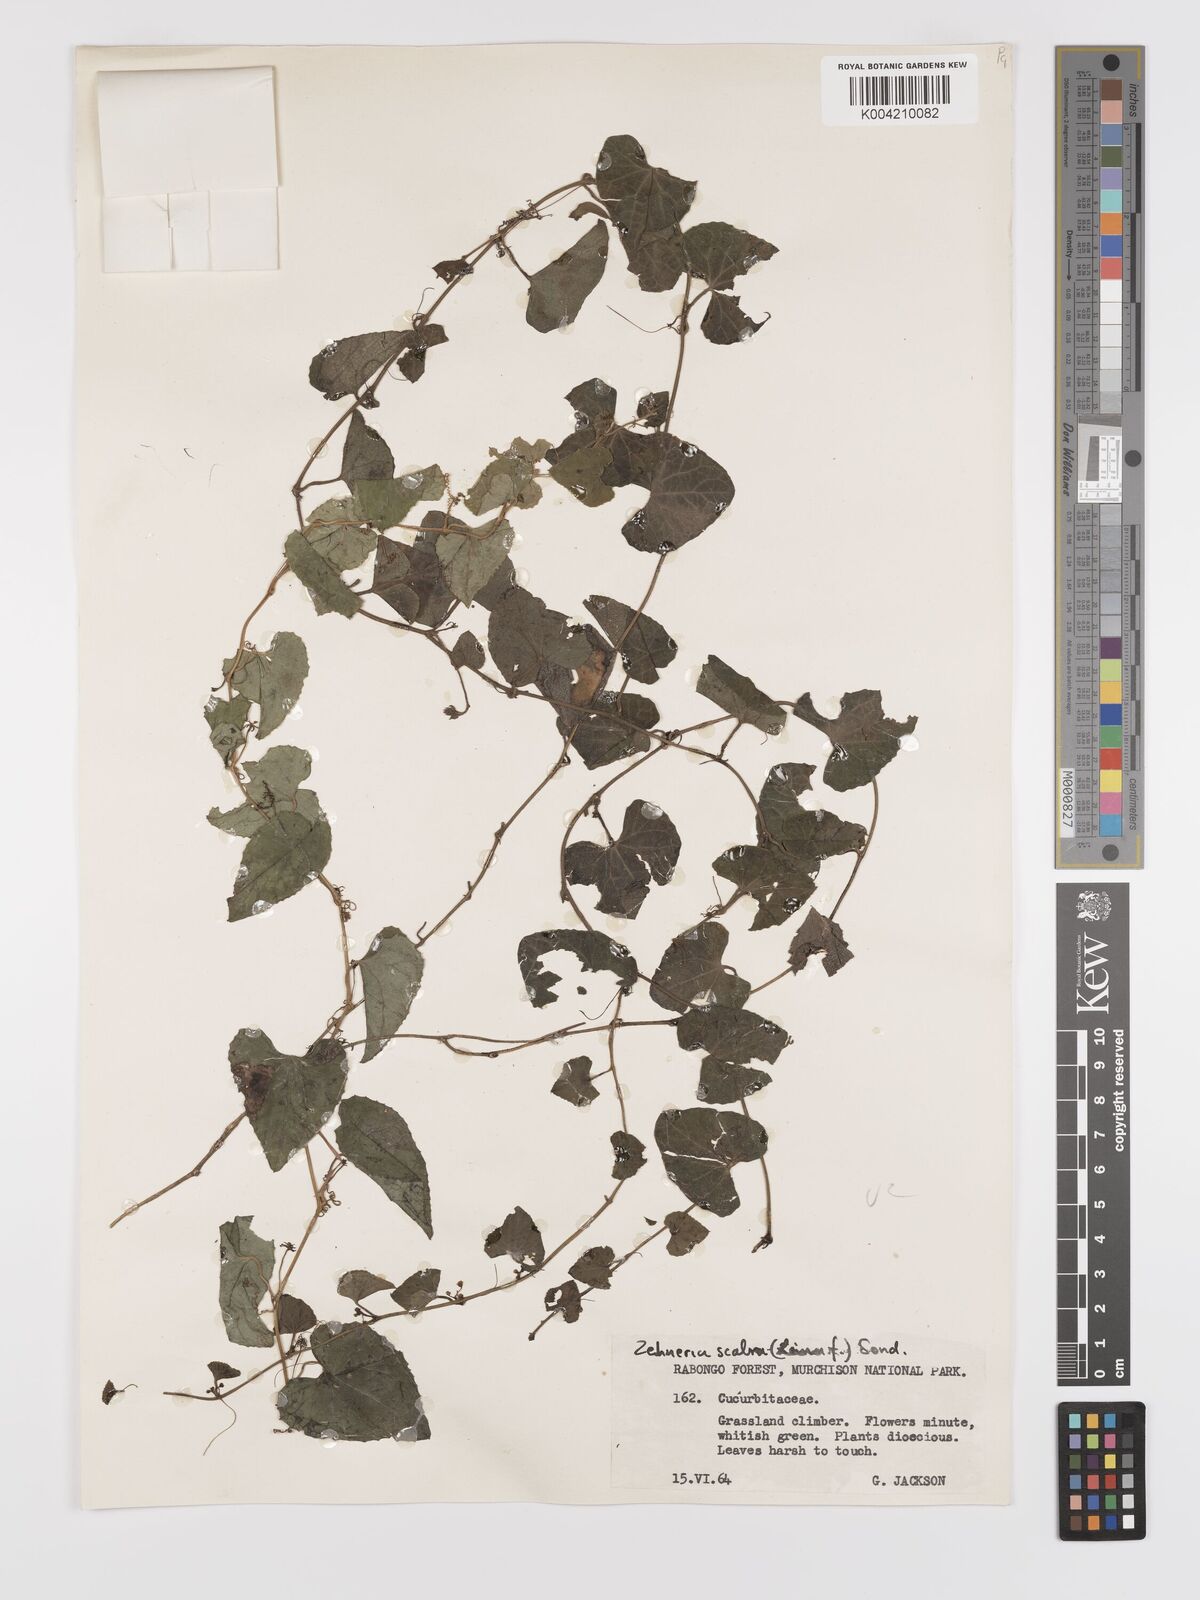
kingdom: Plantae
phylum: Tracheophyta
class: Magnoliopsida
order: Cucurbitales
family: Cucurbitaceae
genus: Zehneria
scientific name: Zehneria scabra
